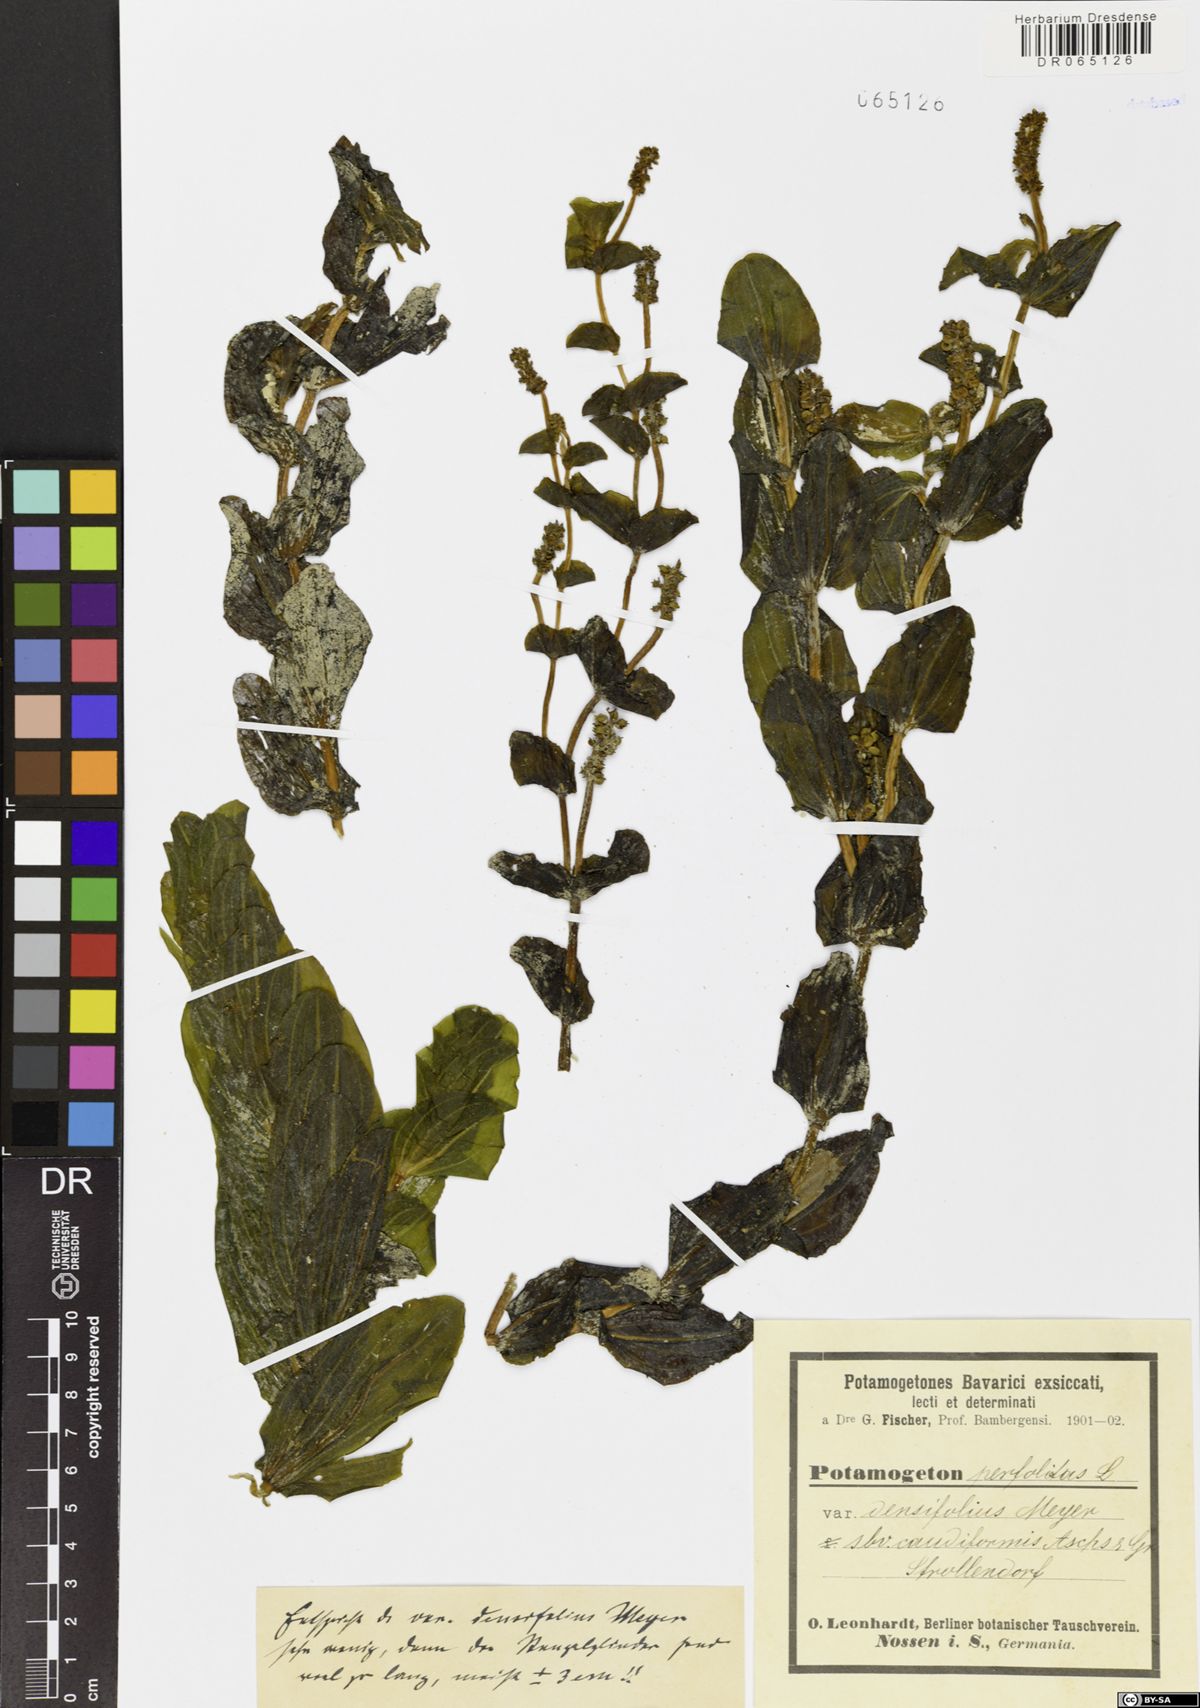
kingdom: Plantae
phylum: Tracheophyta
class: Liliopsida
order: Alismatales
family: Potamogetonaceae
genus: Potamogeton
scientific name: Potamogeton perfoliatus
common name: Perfoliate pondweed
